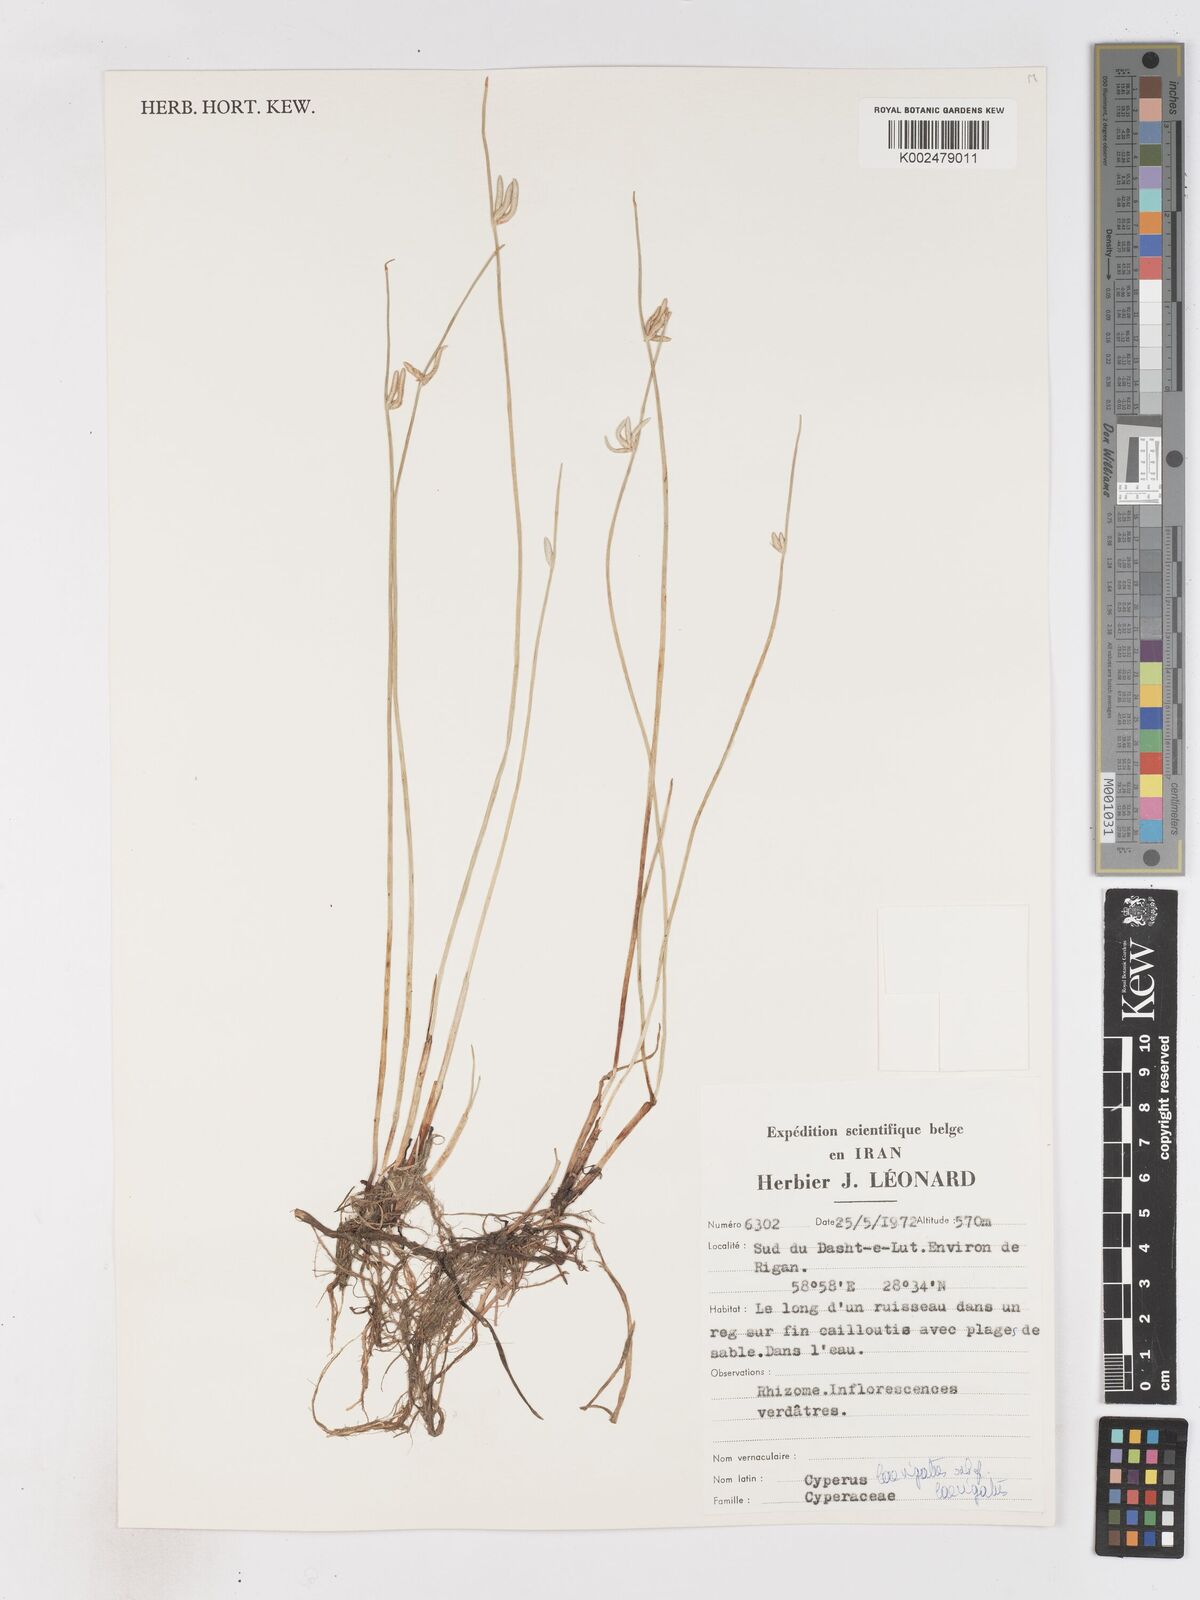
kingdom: Plantae
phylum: Tracheophyta
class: Liliopsida
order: Poales
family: Cyperaceae
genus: Cyperus
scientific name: Cyperus laevigatus
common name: Smooth flat sedge
